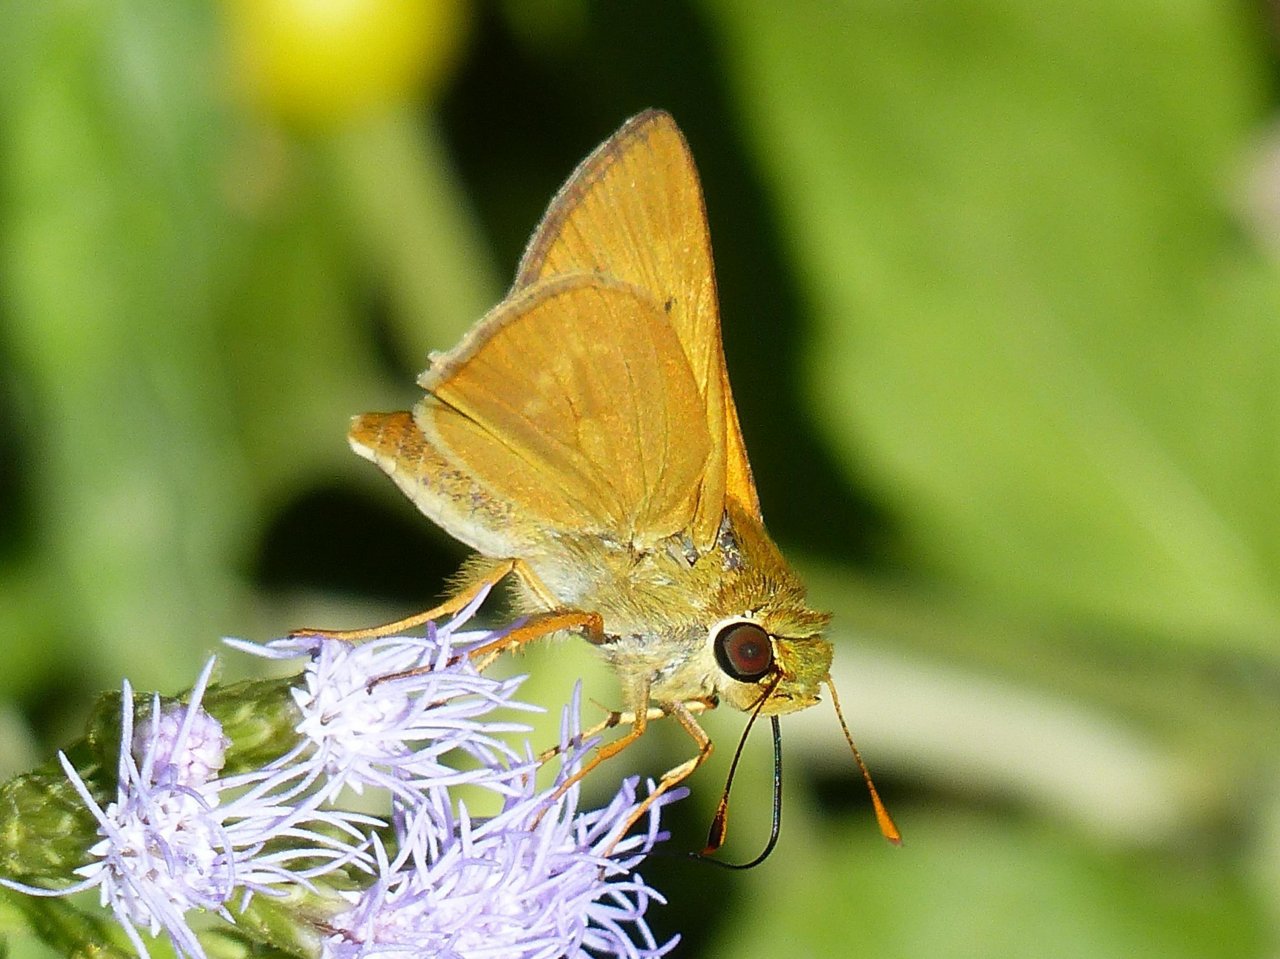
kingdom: Animalia
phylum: Arthropoda
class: Insecta
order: Lepidoptera
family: Hesperiidae
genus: Mellana
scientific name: Mellana eulogius
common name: Common Mellana
